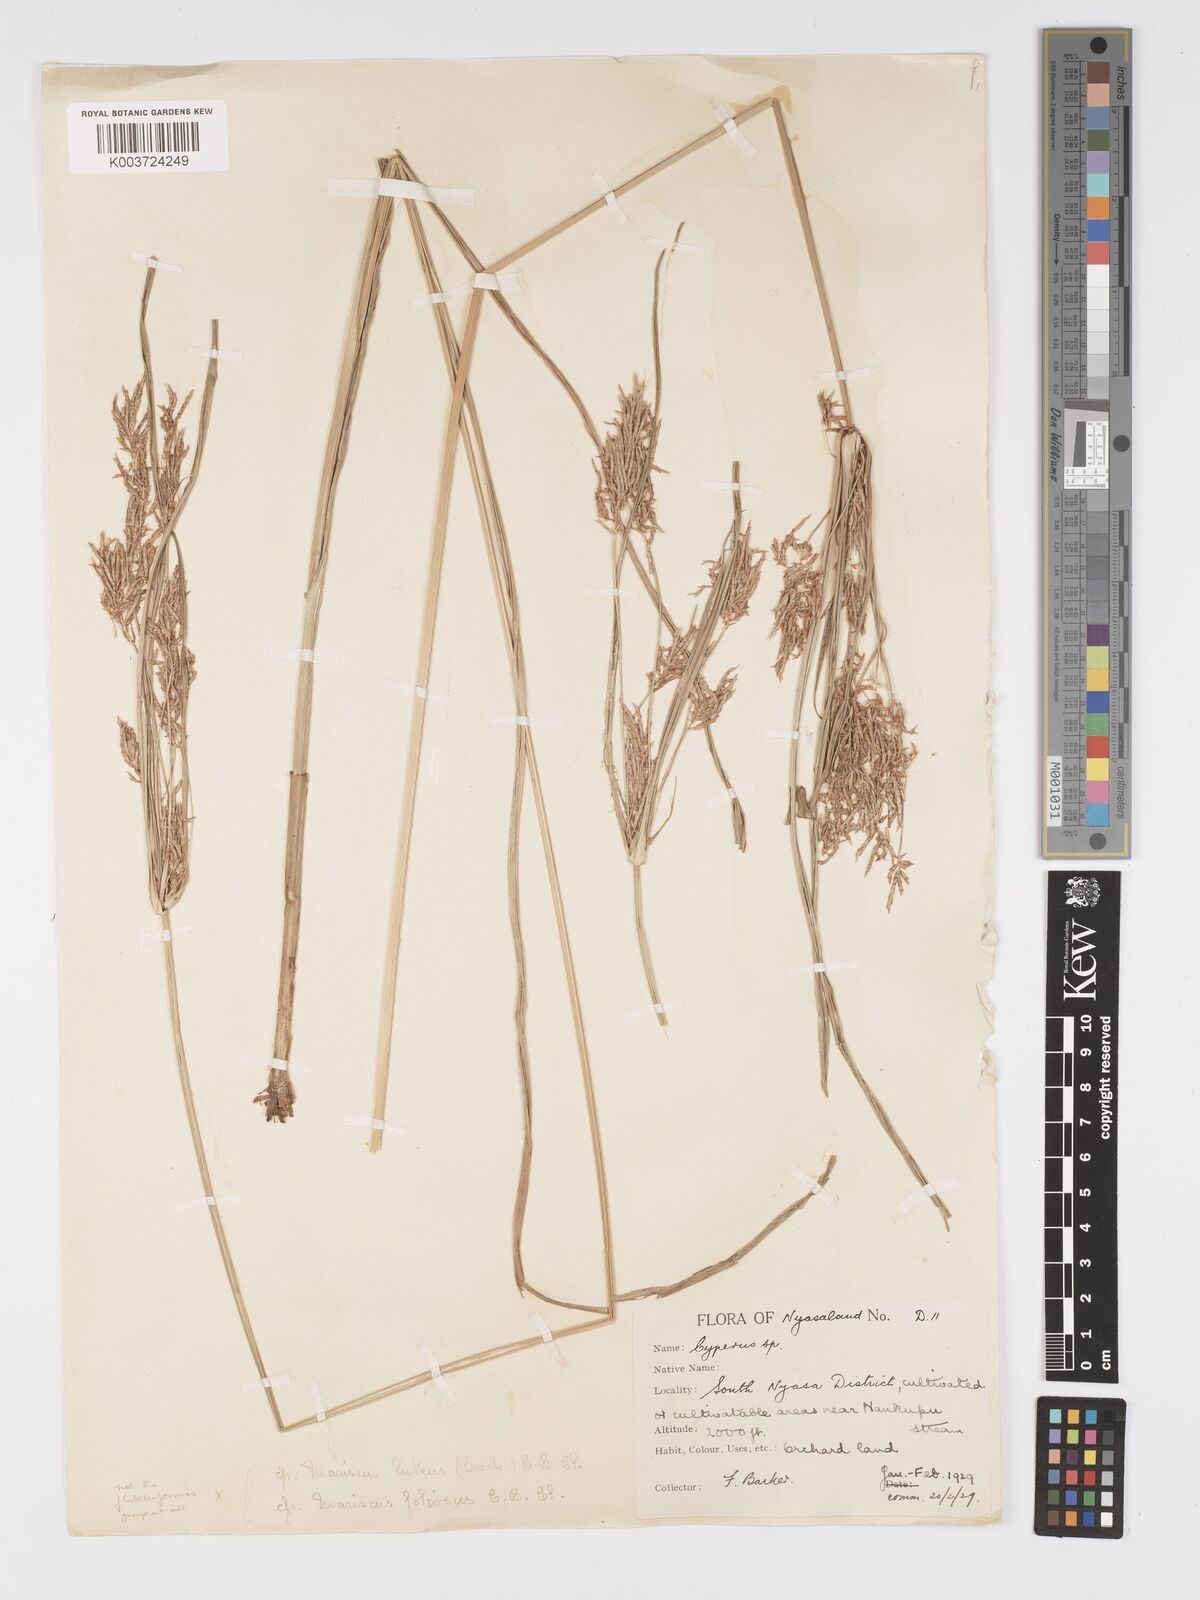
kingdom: Plantae
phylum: Tracheophyta
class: Liliopsida
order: Poales
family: Cyperaceae
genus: Cyperus
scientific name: Cyperus
